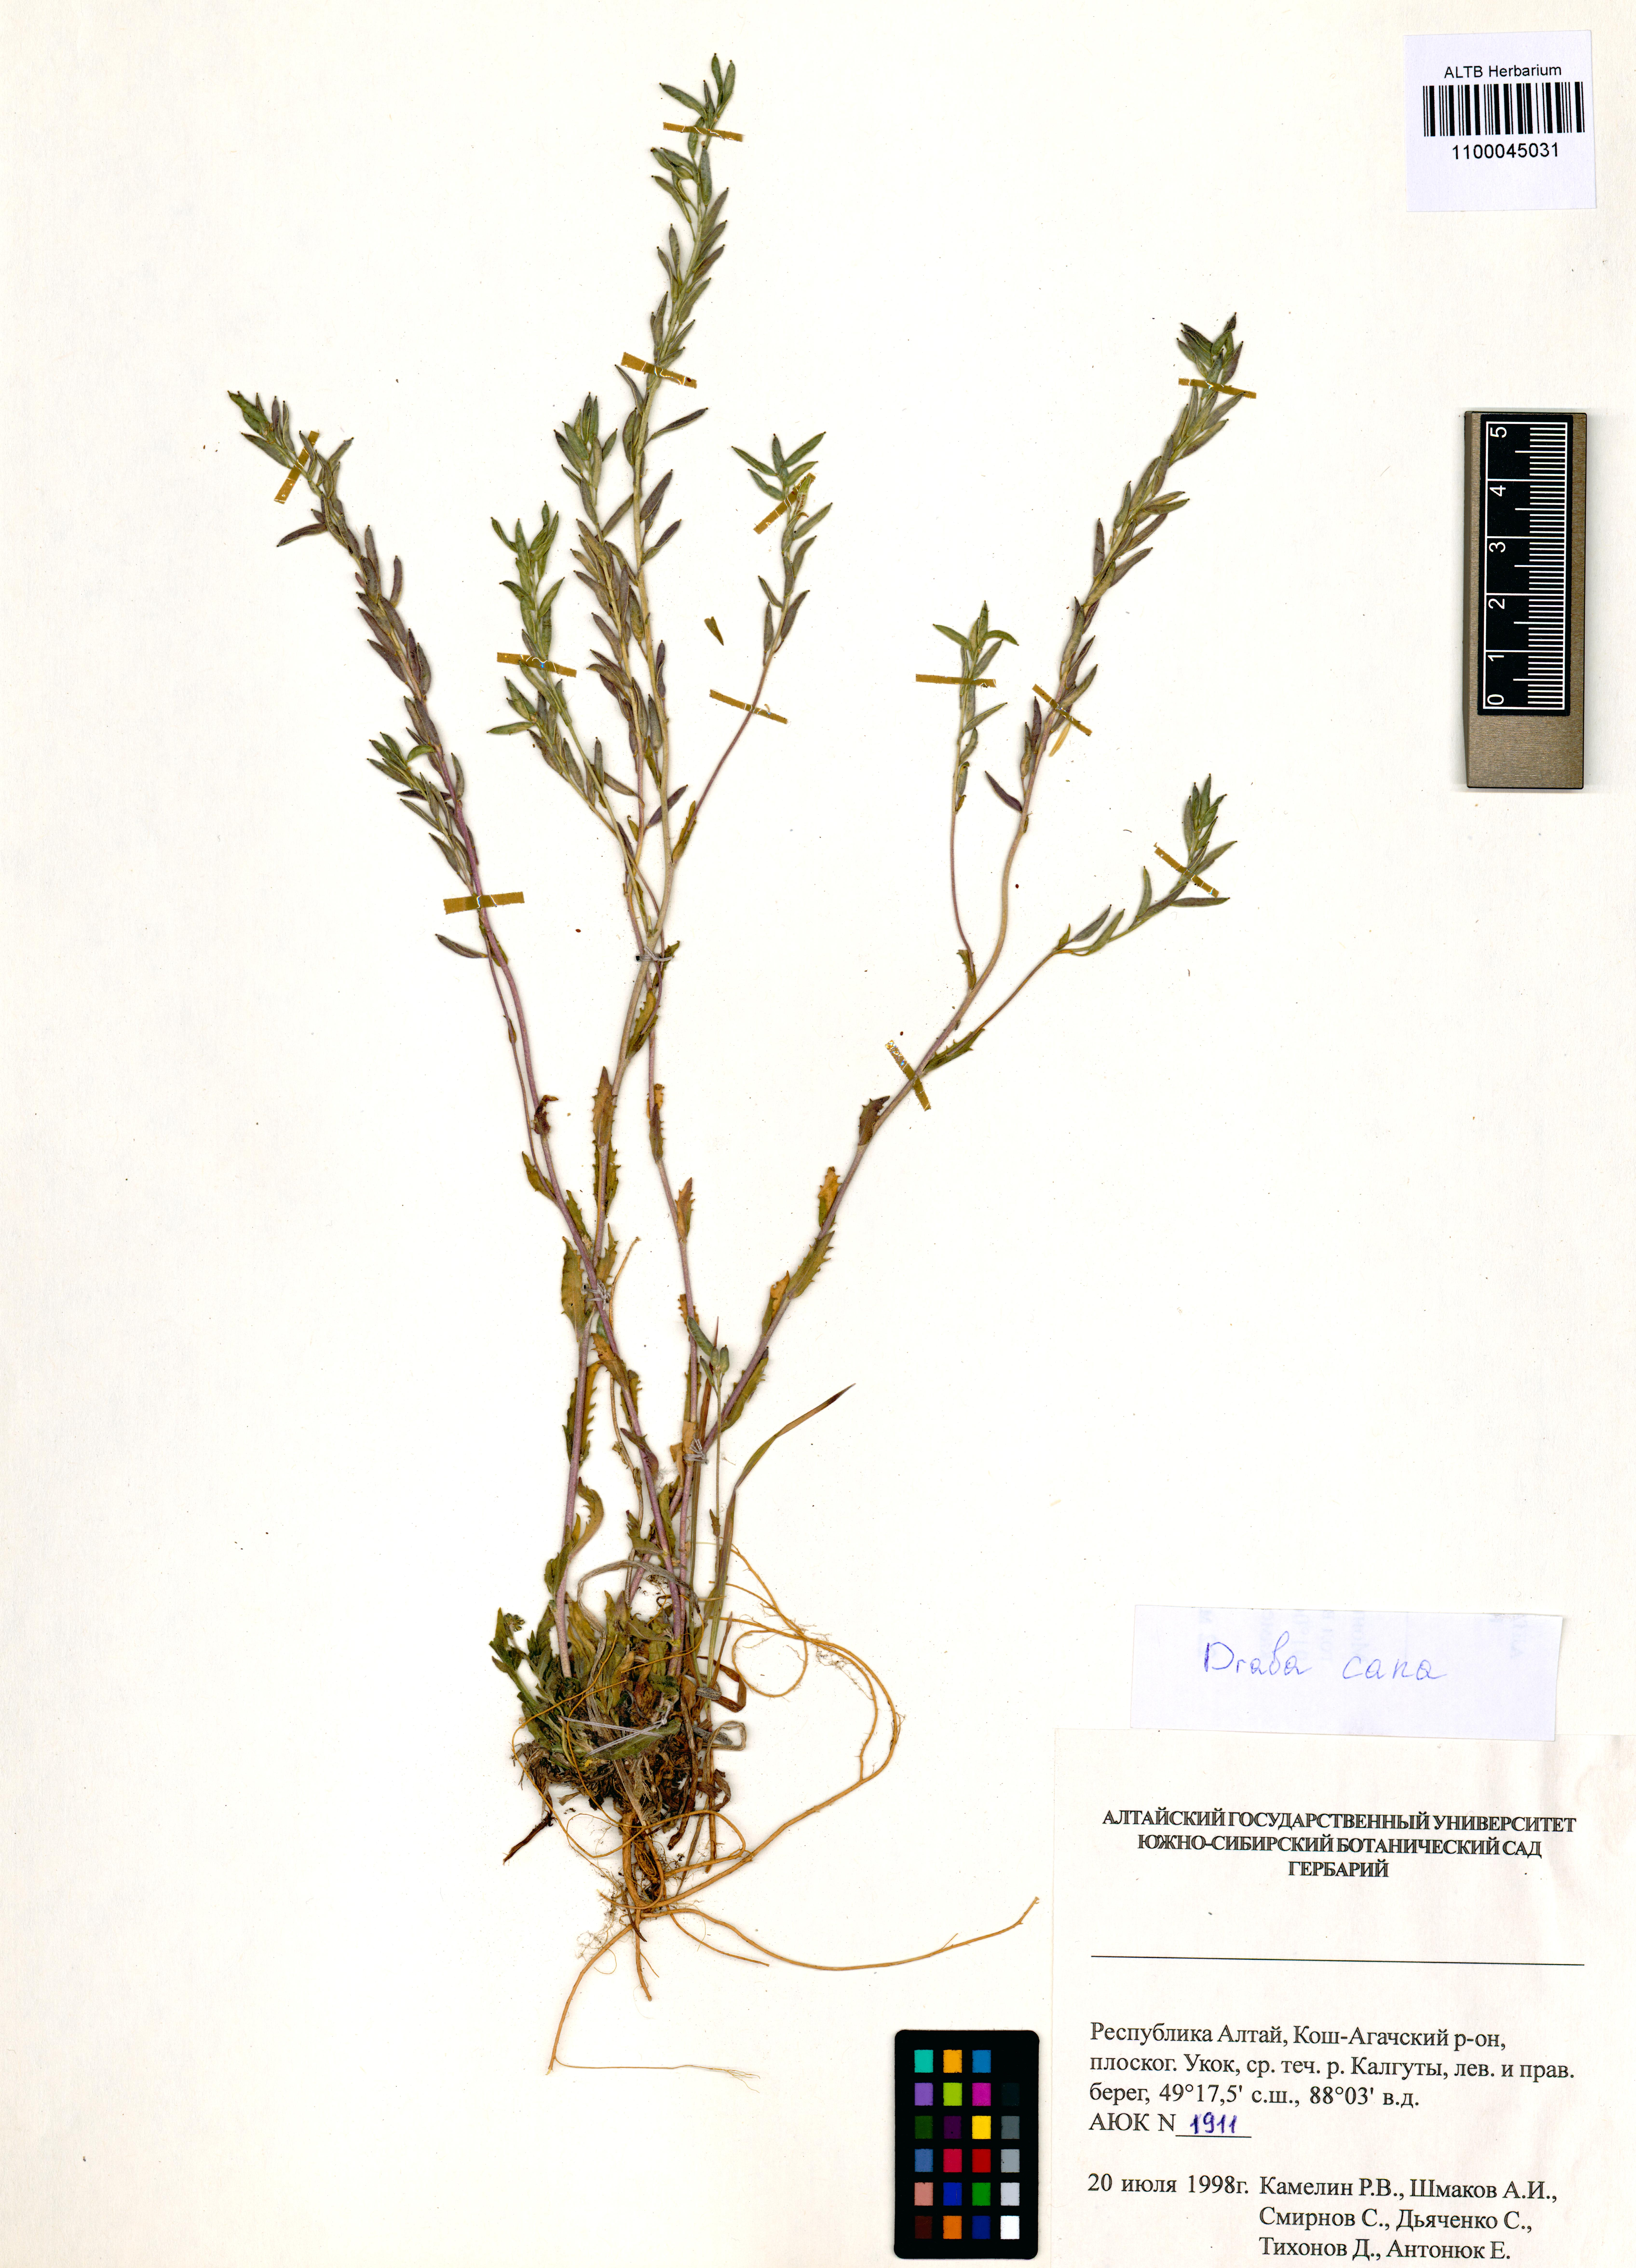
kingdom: Plantae
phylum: Tracheophyta
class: Magnoliopsida
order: Brassicales
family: Brassicaceae
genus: Draba
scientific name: Draba cana
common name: Hoary draba
